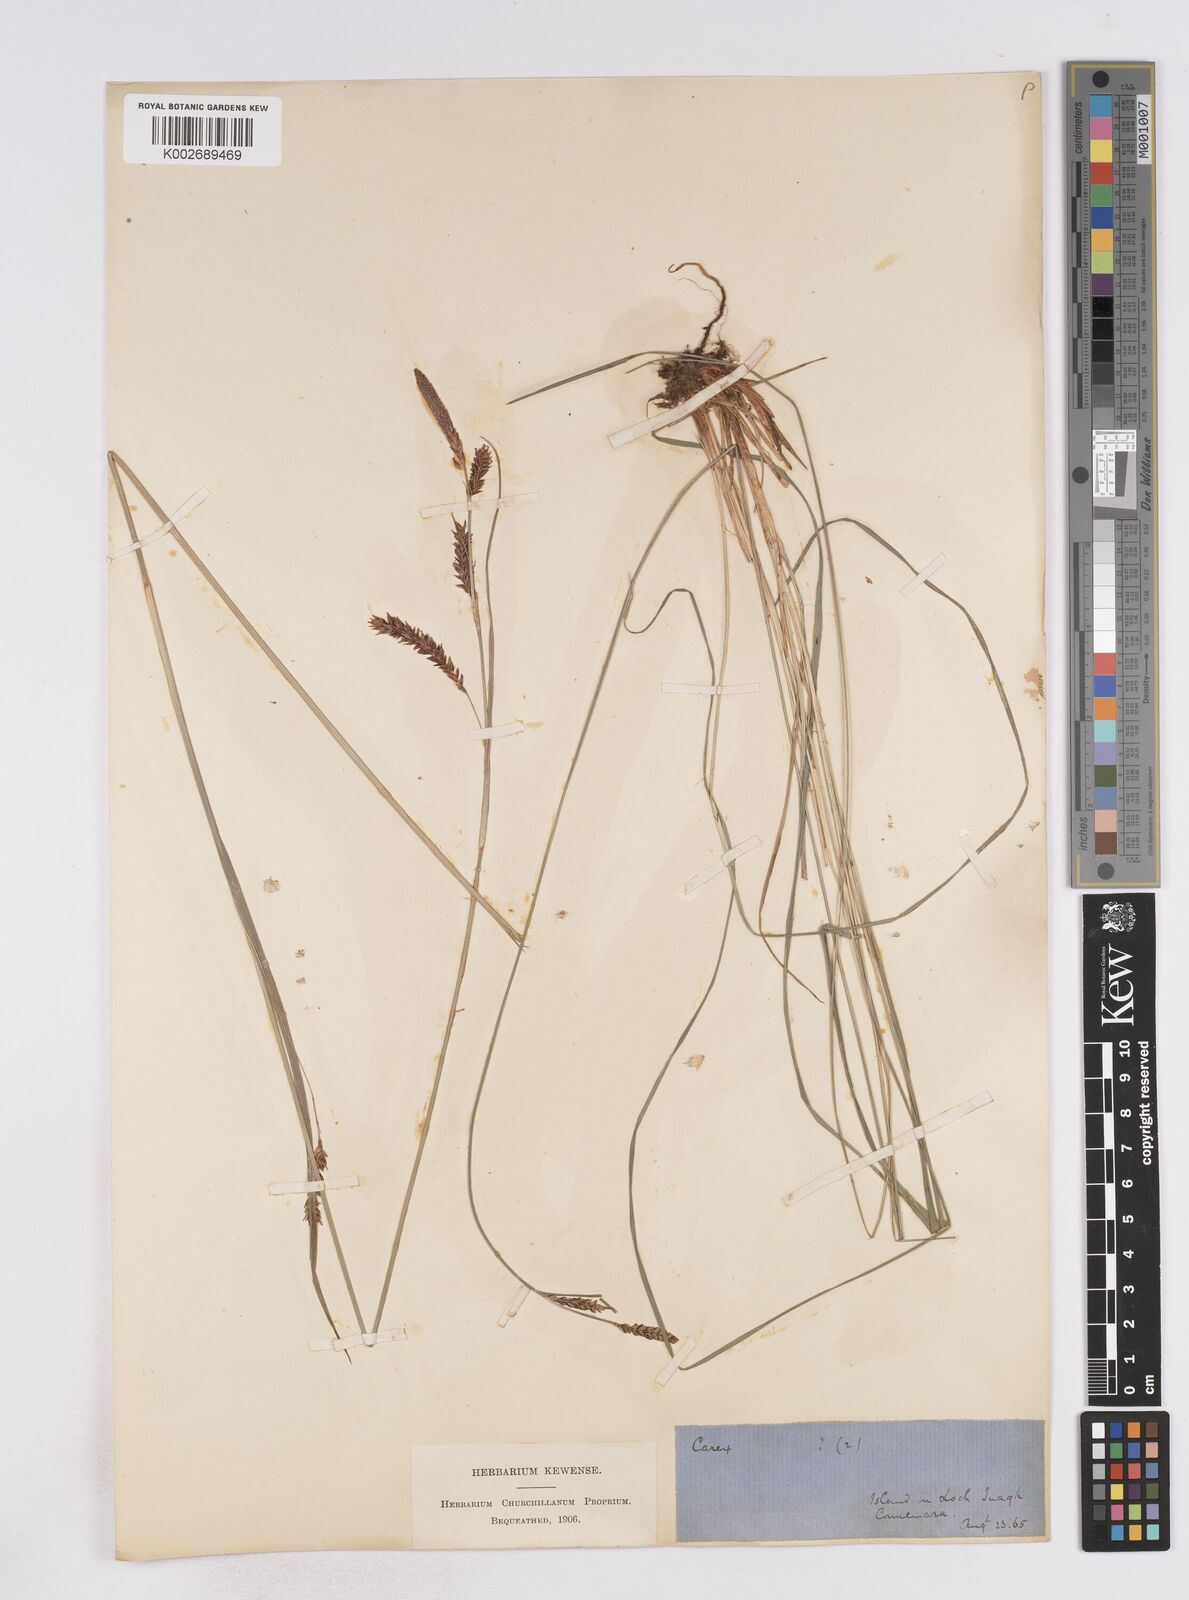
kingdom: Plantae
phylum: Tracheophyta
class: Liliopsida
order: Poales
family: Cyperaceae
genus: Carex
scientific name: Carex flacca
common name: Glaucous sedge
